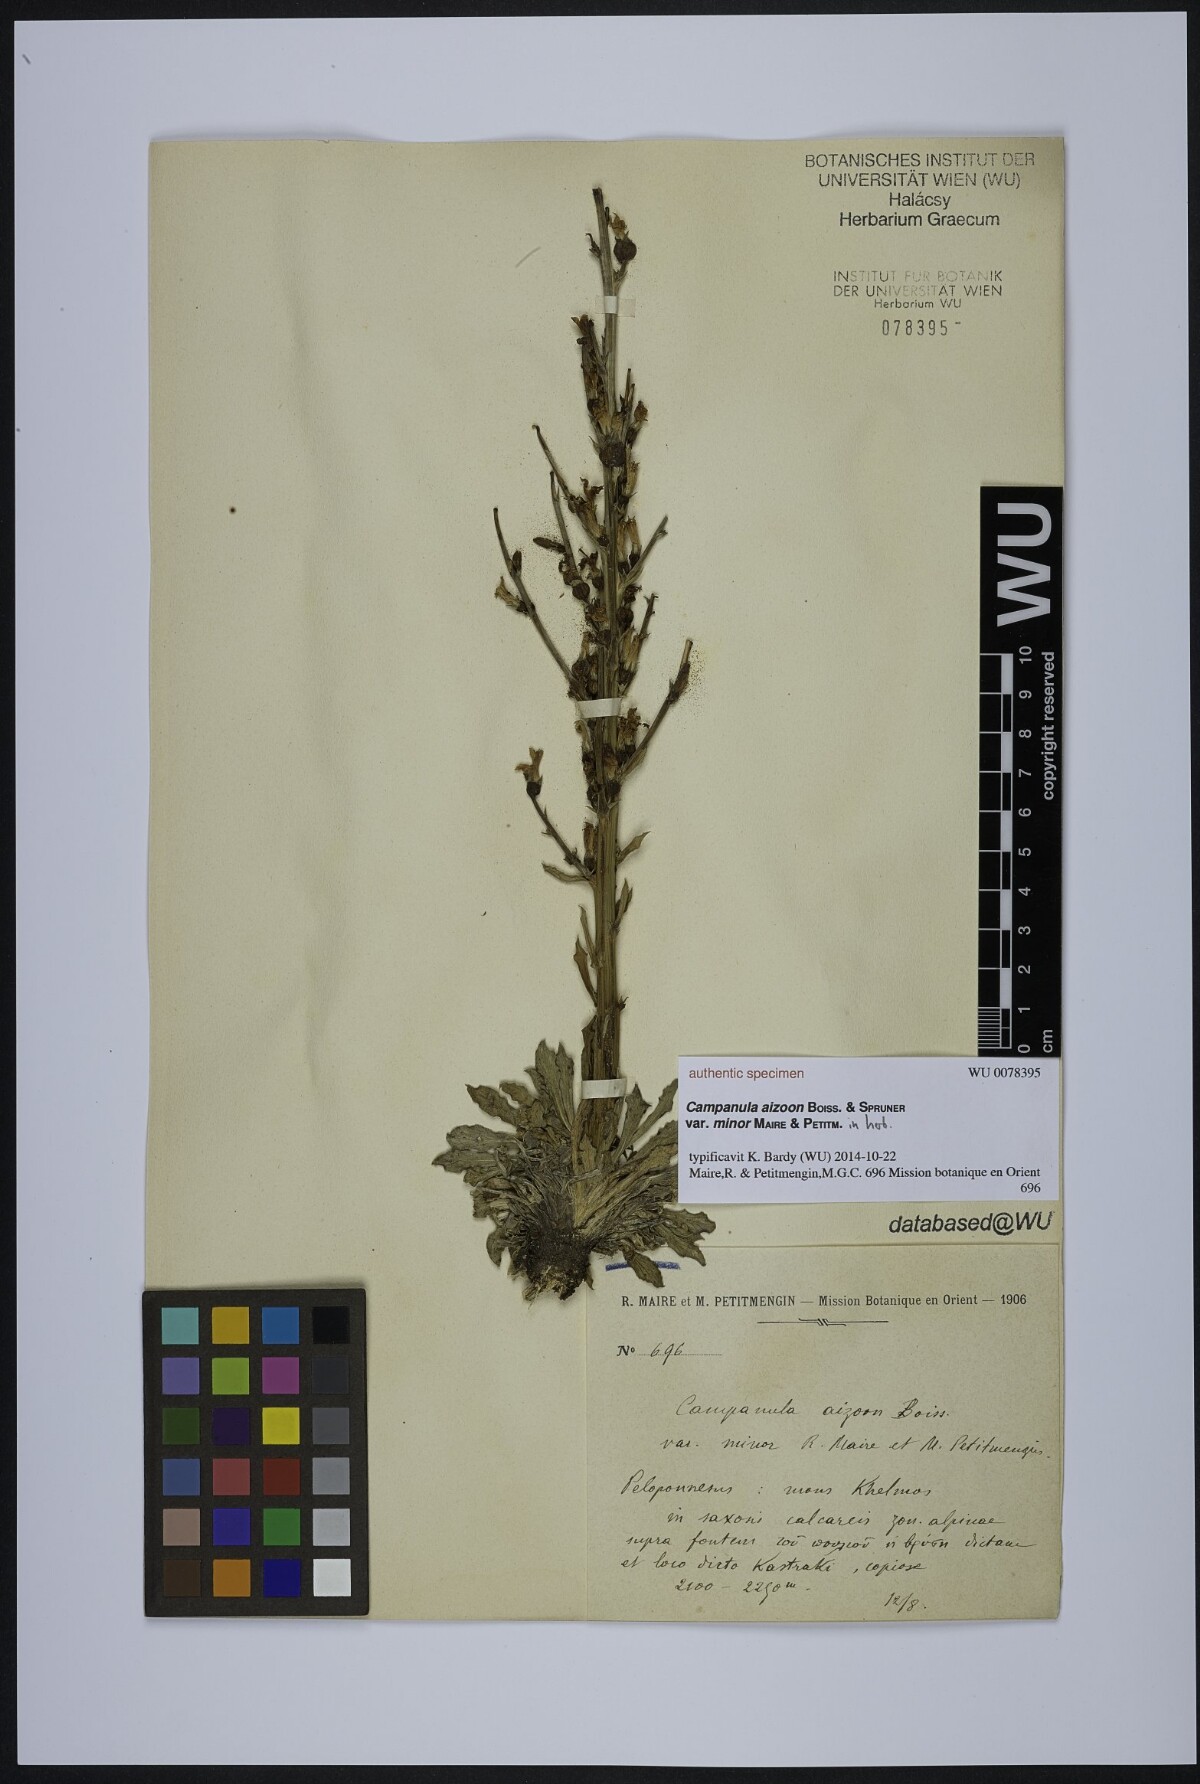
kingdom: Plantae
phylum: Tracheophyta
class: Magnoliopsida
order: Asterales
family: Campanulaceae
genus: Campanula
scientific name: Campanula aizoon
